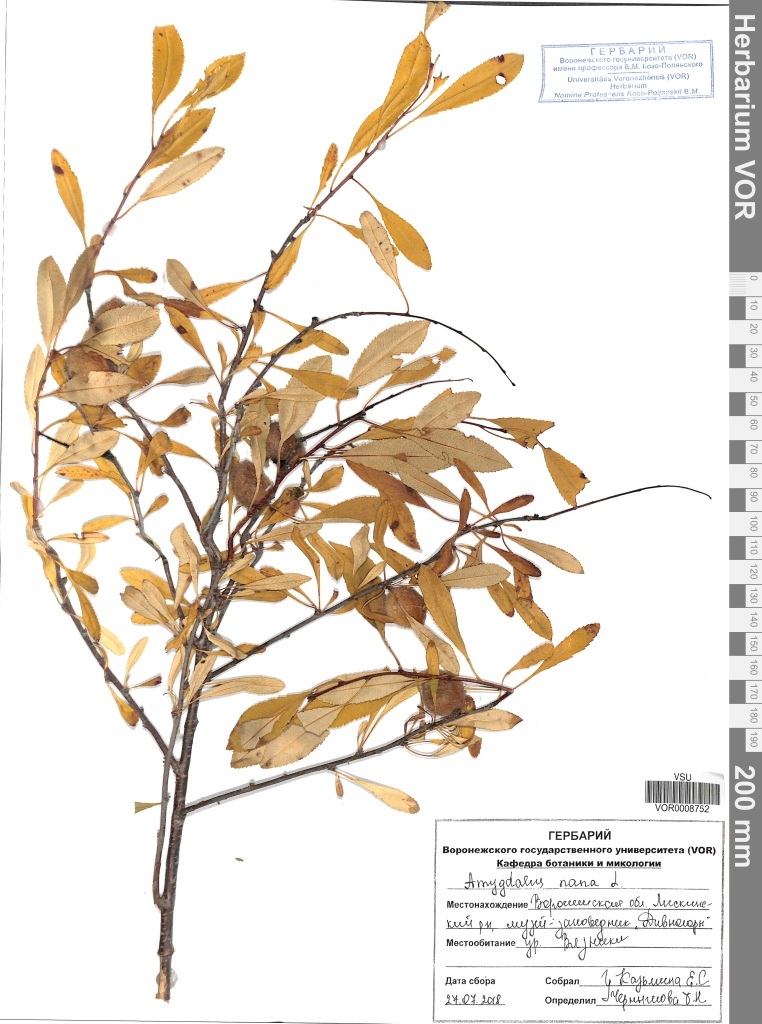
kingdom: Plantae
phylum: Tracheophyta
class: Magnoliopsida
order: Rosales
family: Rosaceae
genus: Prunus
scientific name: Prunus tenella
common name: Dwarf russian almond
